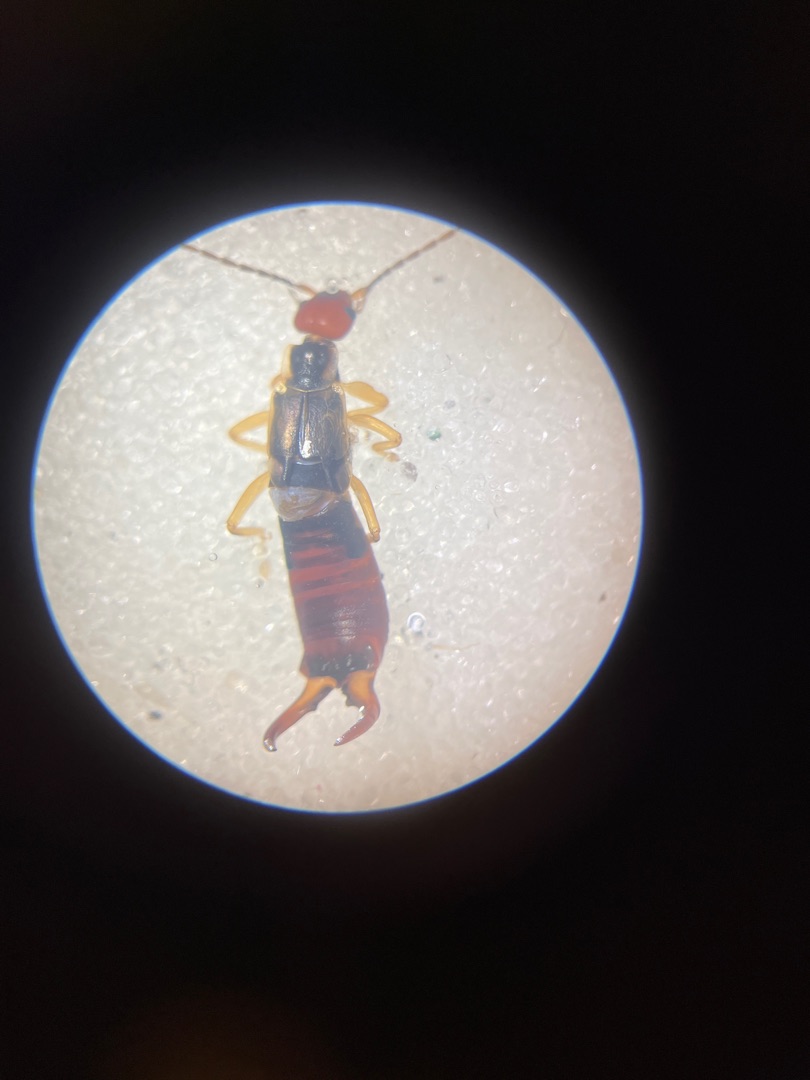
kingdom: Animalia
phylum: Arthropoda
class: Insecta
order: Dermaptera
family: Forficulidae
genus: Forficula
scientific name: Forficula auricularia
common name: Almindelig ørentvist
